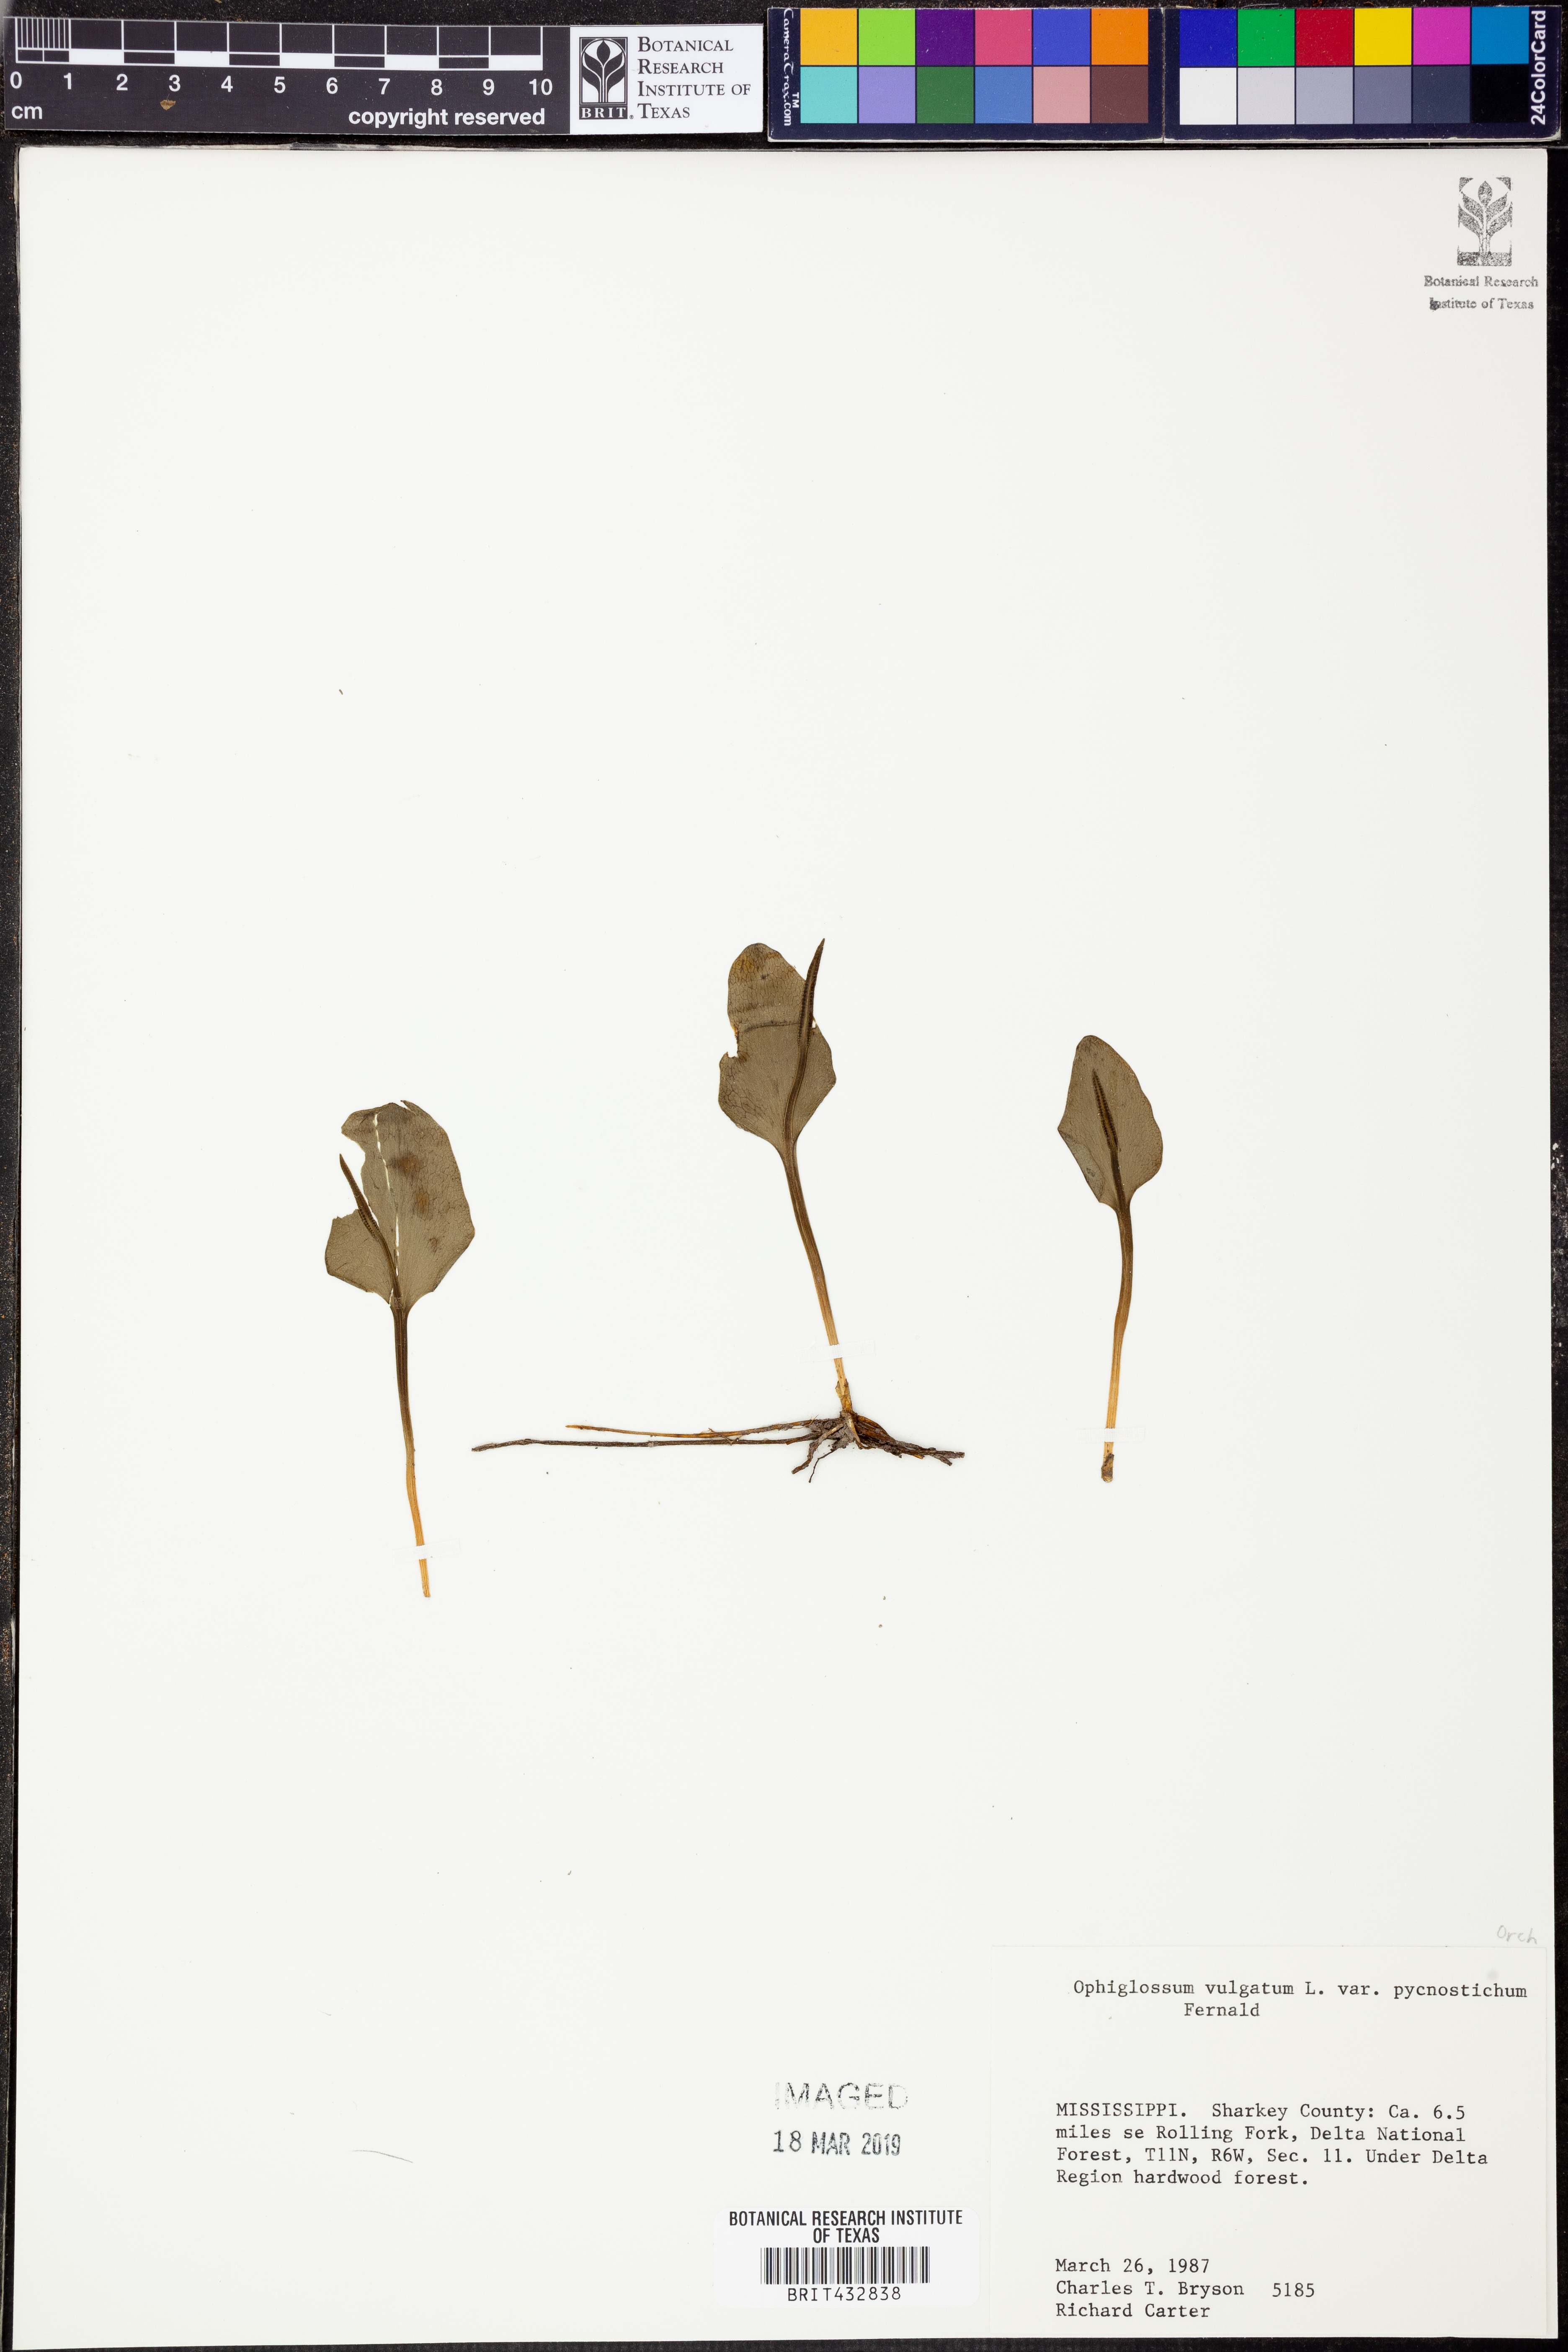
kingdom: Plantae
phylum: Tracheophyta
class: Polypodiopsida
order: Ophioglossales
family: Ophioglossaceae
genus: Ophioglossum
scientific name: Ophioglossum vulgatum
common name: Adder's-tongue
